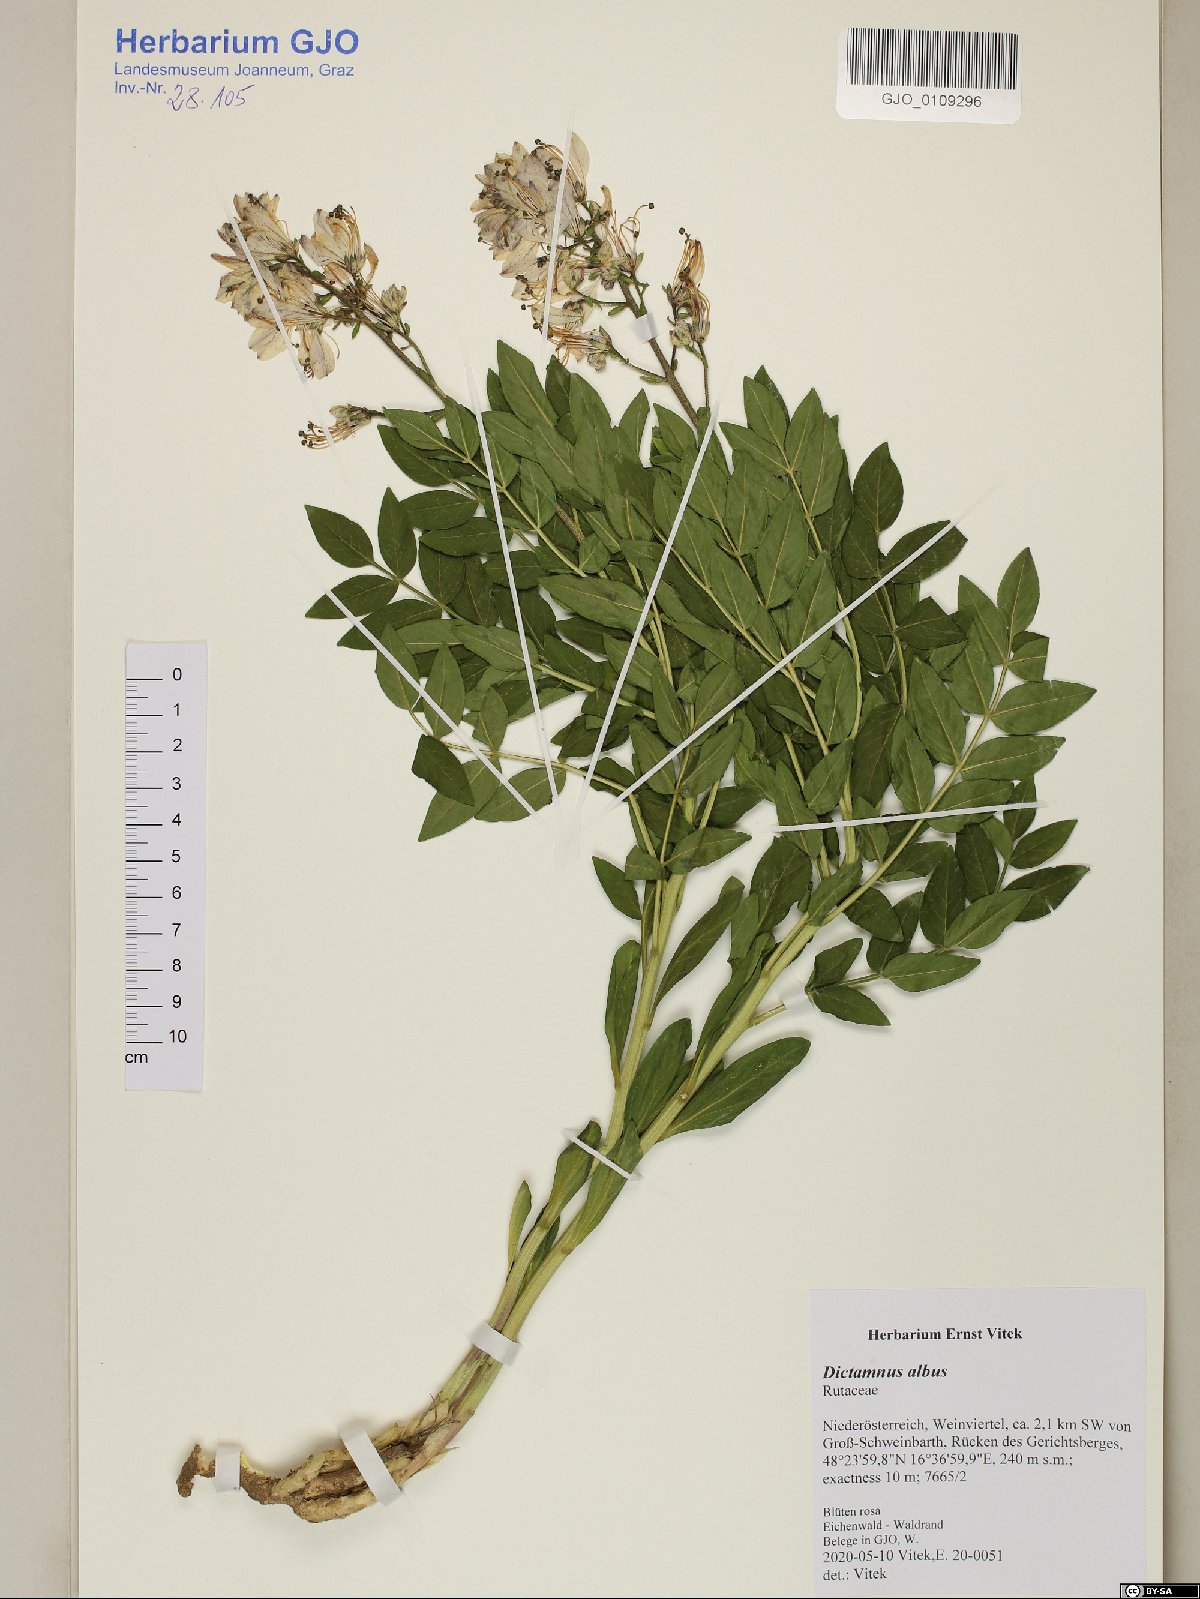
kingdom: Plantae
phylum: Tracheophyta
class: Magnoliopsida
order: Sapindales
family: Rutaceae
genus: Dictamnus
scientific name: Dictamnus albus
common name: Gasplant
